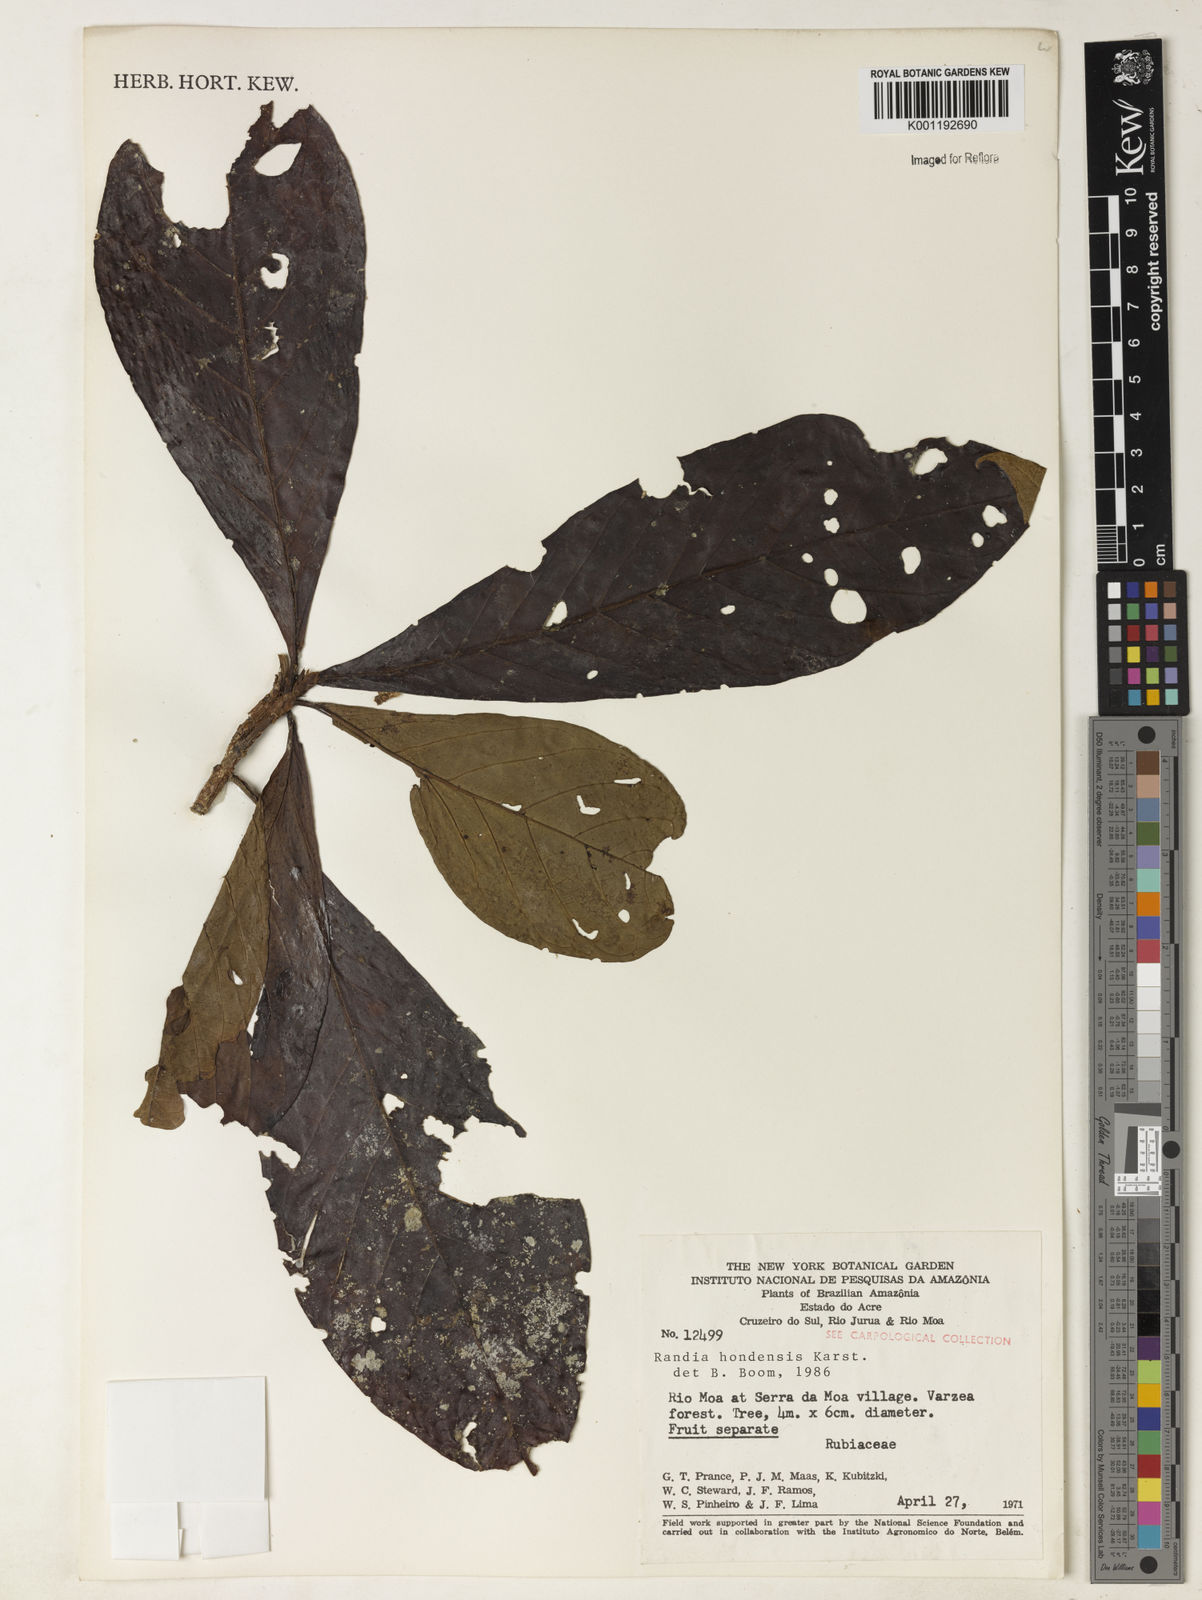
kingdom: Plantae
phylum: Tracheophyta
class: Magnoliopsida
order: Gentianales
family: Rubiaceae
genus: Randia
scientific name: Randia hondensis
